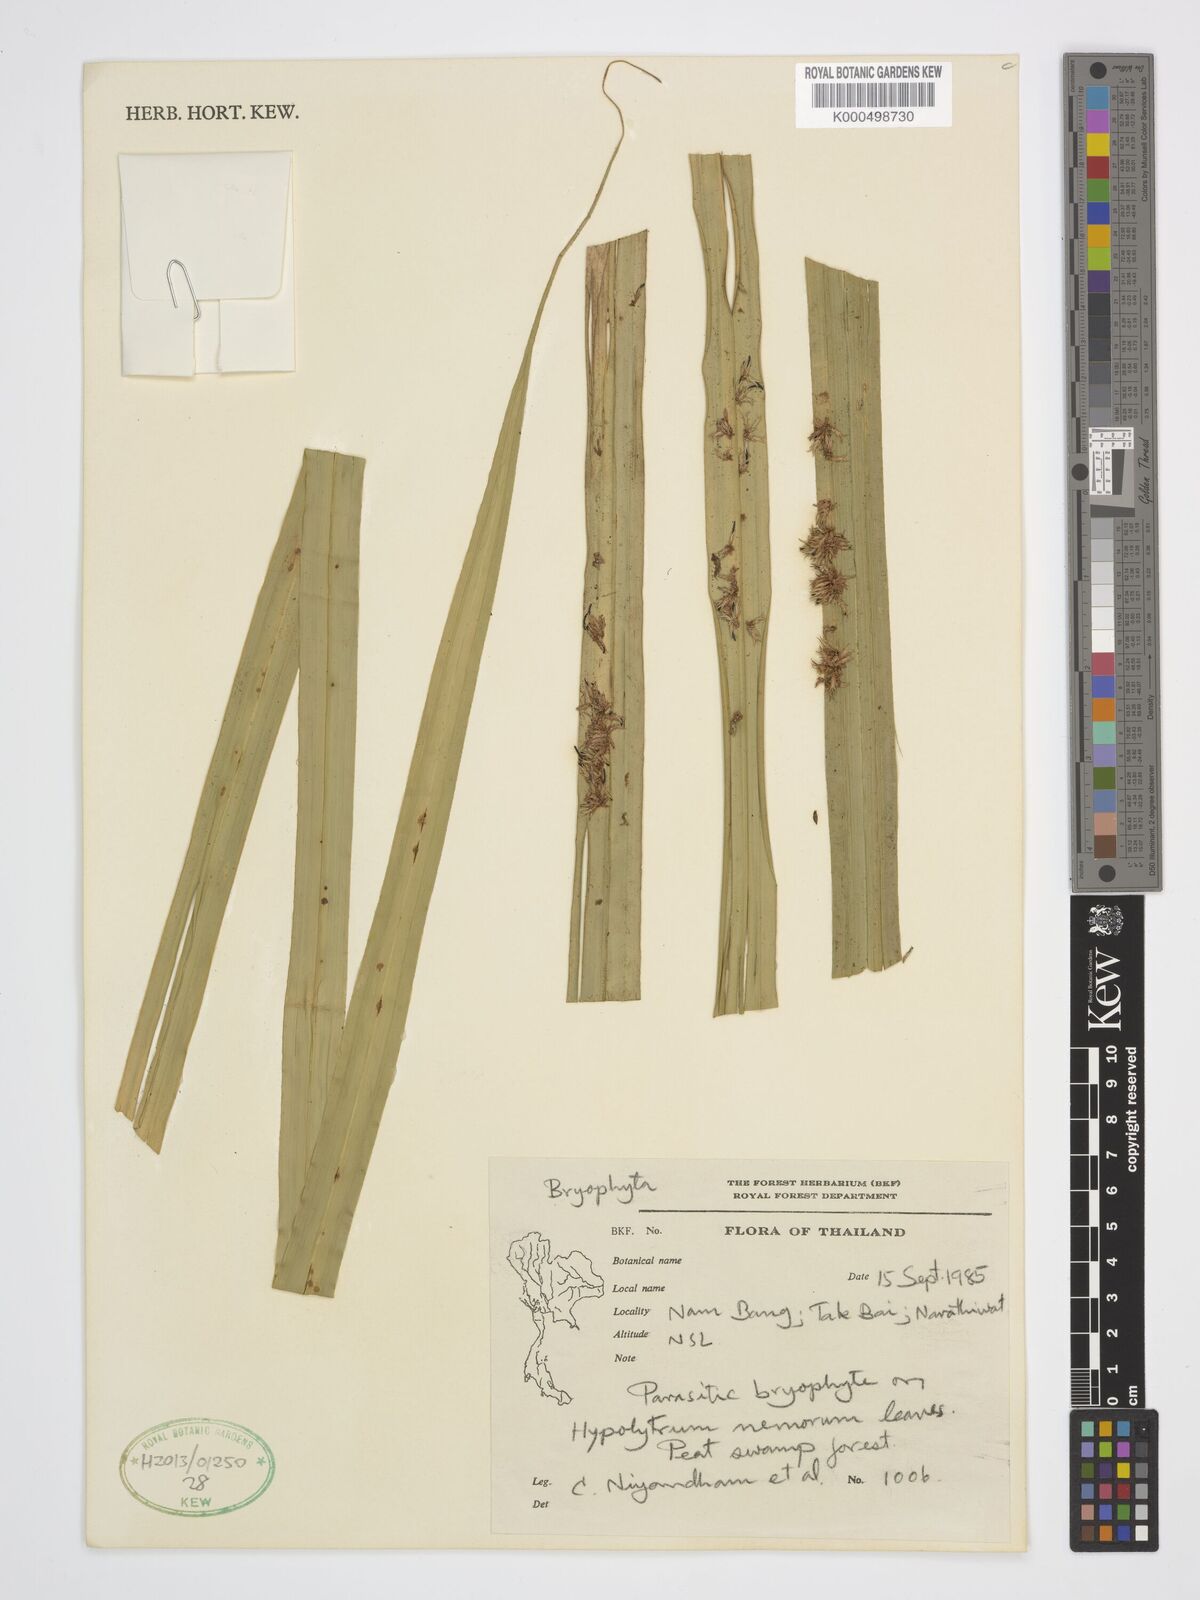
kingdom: Plantae
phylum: Tracheophyta
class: Liliopsida
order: Poales
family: Cyperaceae
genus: Hypolytrum
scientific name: Hypolytrum nemorum
